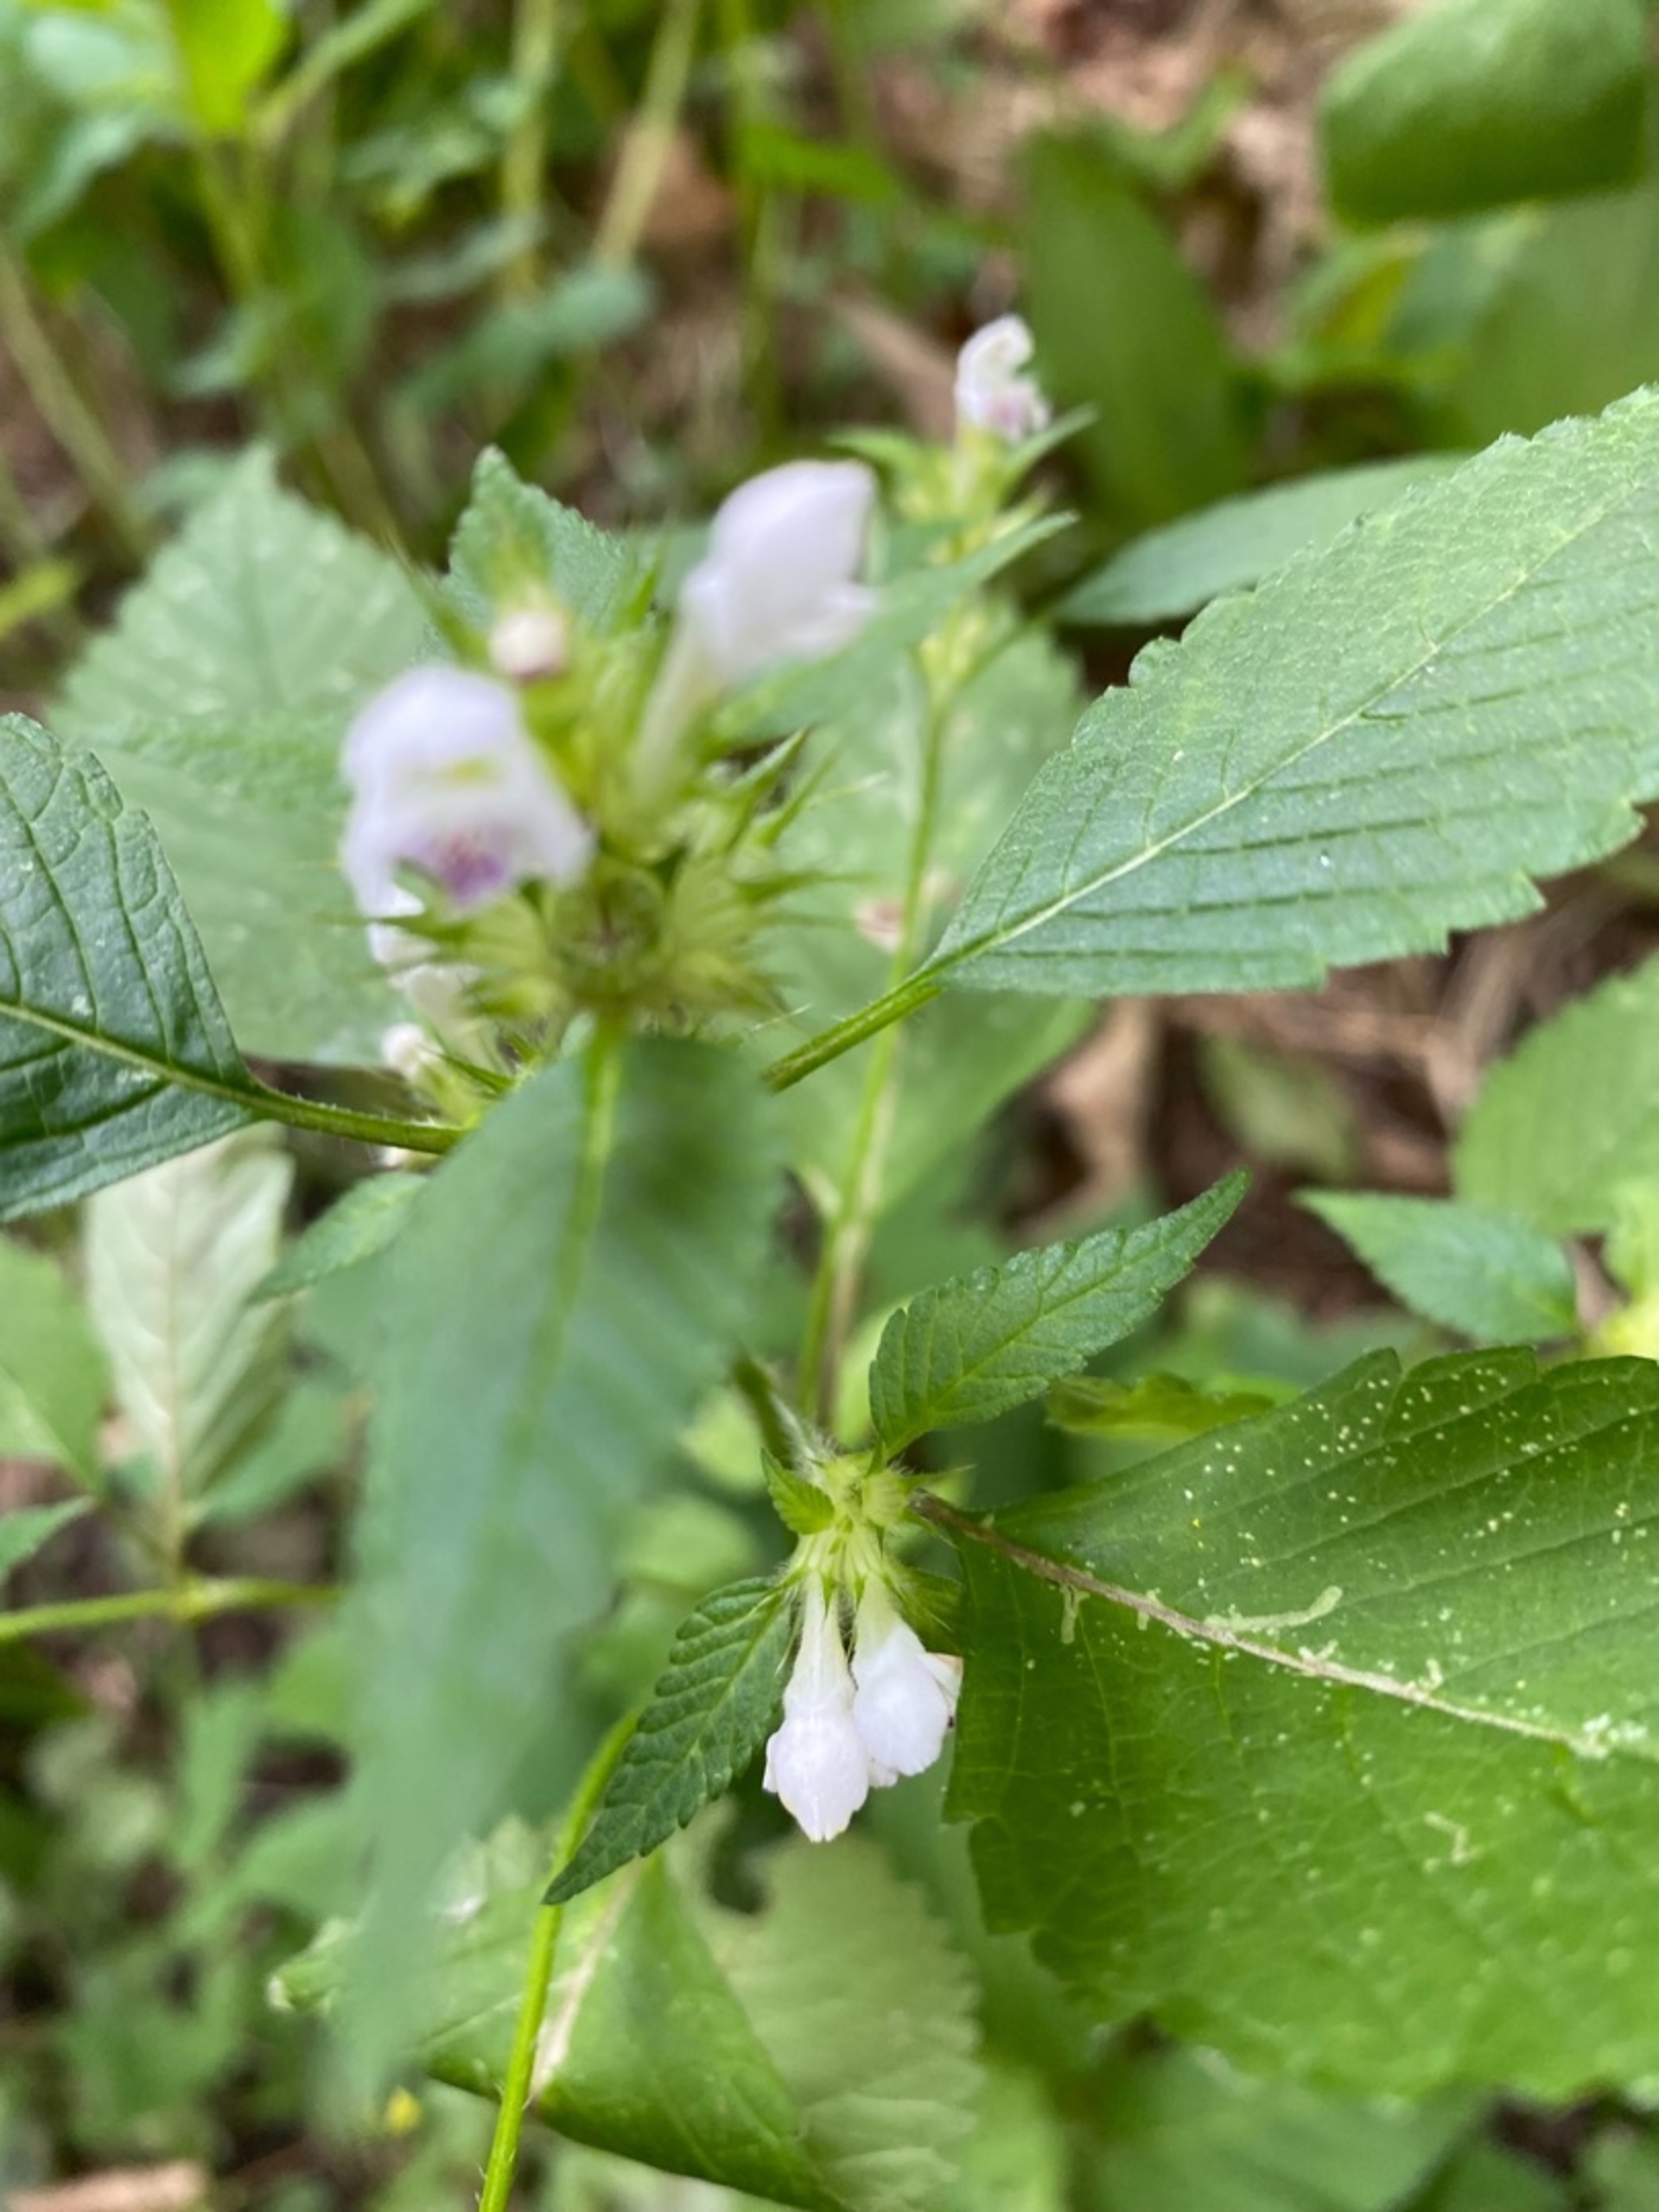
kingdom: Plantae
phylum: Tracheophyta
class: Magnoliopsida
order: Lamiales
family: Lamiaceae
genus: Galeopsis
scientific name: Galeopsis bifida
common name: Skov-hanekro
